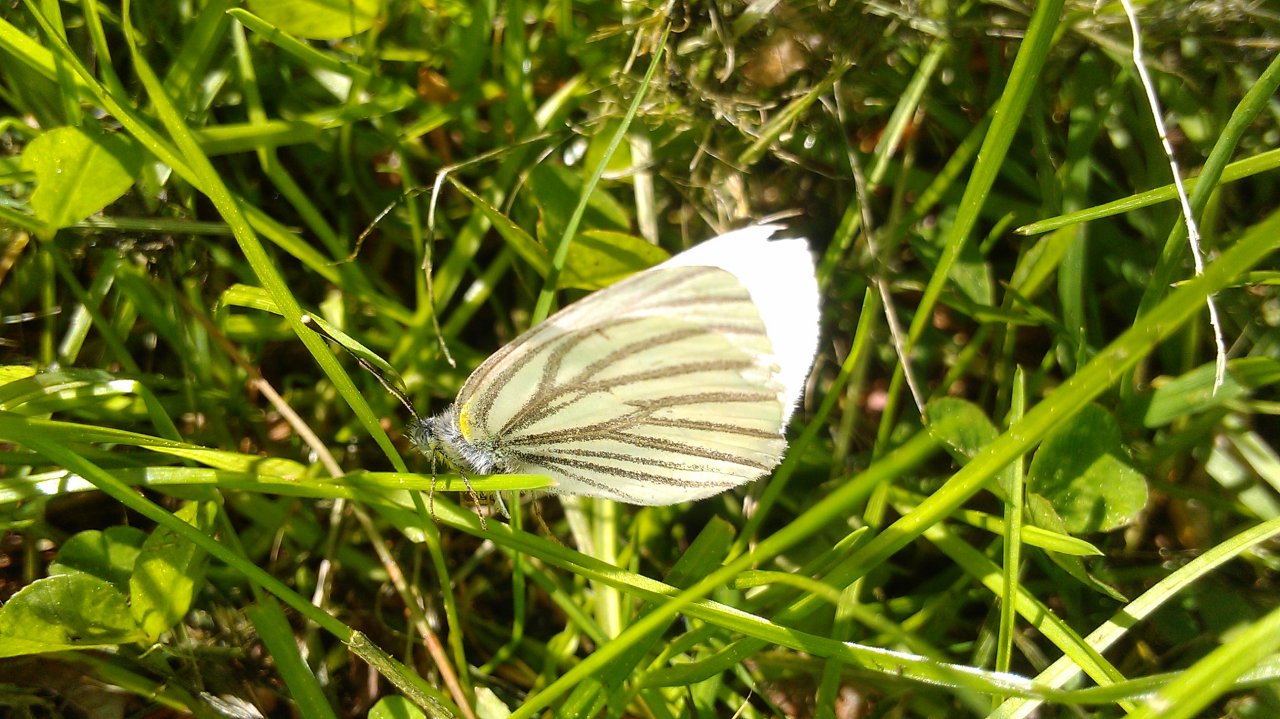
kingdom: Animalia
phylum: Arthropoda
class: Insecta
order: Lepidoptera
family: Pieridae
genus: Pieris
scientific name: Pieris oleracea
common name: Mustard White
